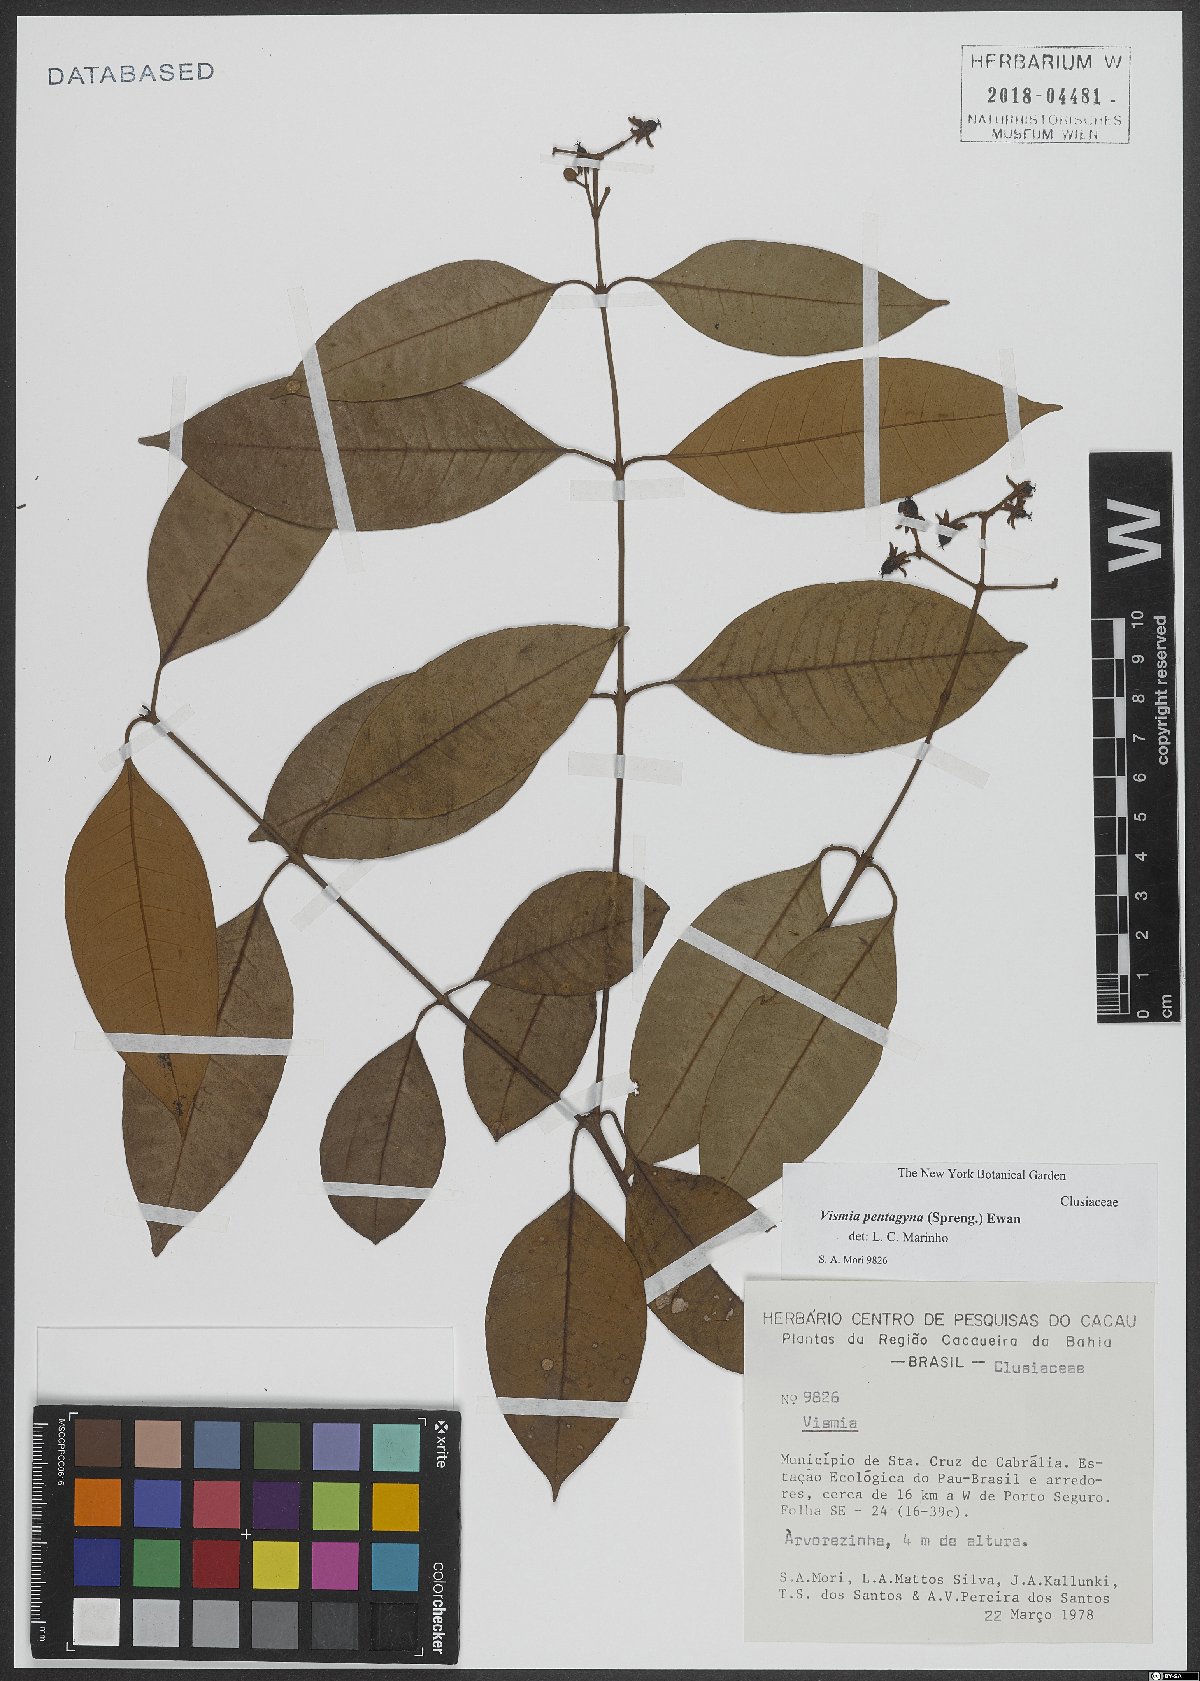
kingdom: Plantae
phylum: Tracheophyta
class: Magnoliopsida
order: Malpighiales
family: Hypericaceae
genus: Vismia
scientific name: Vismia pentagyna
